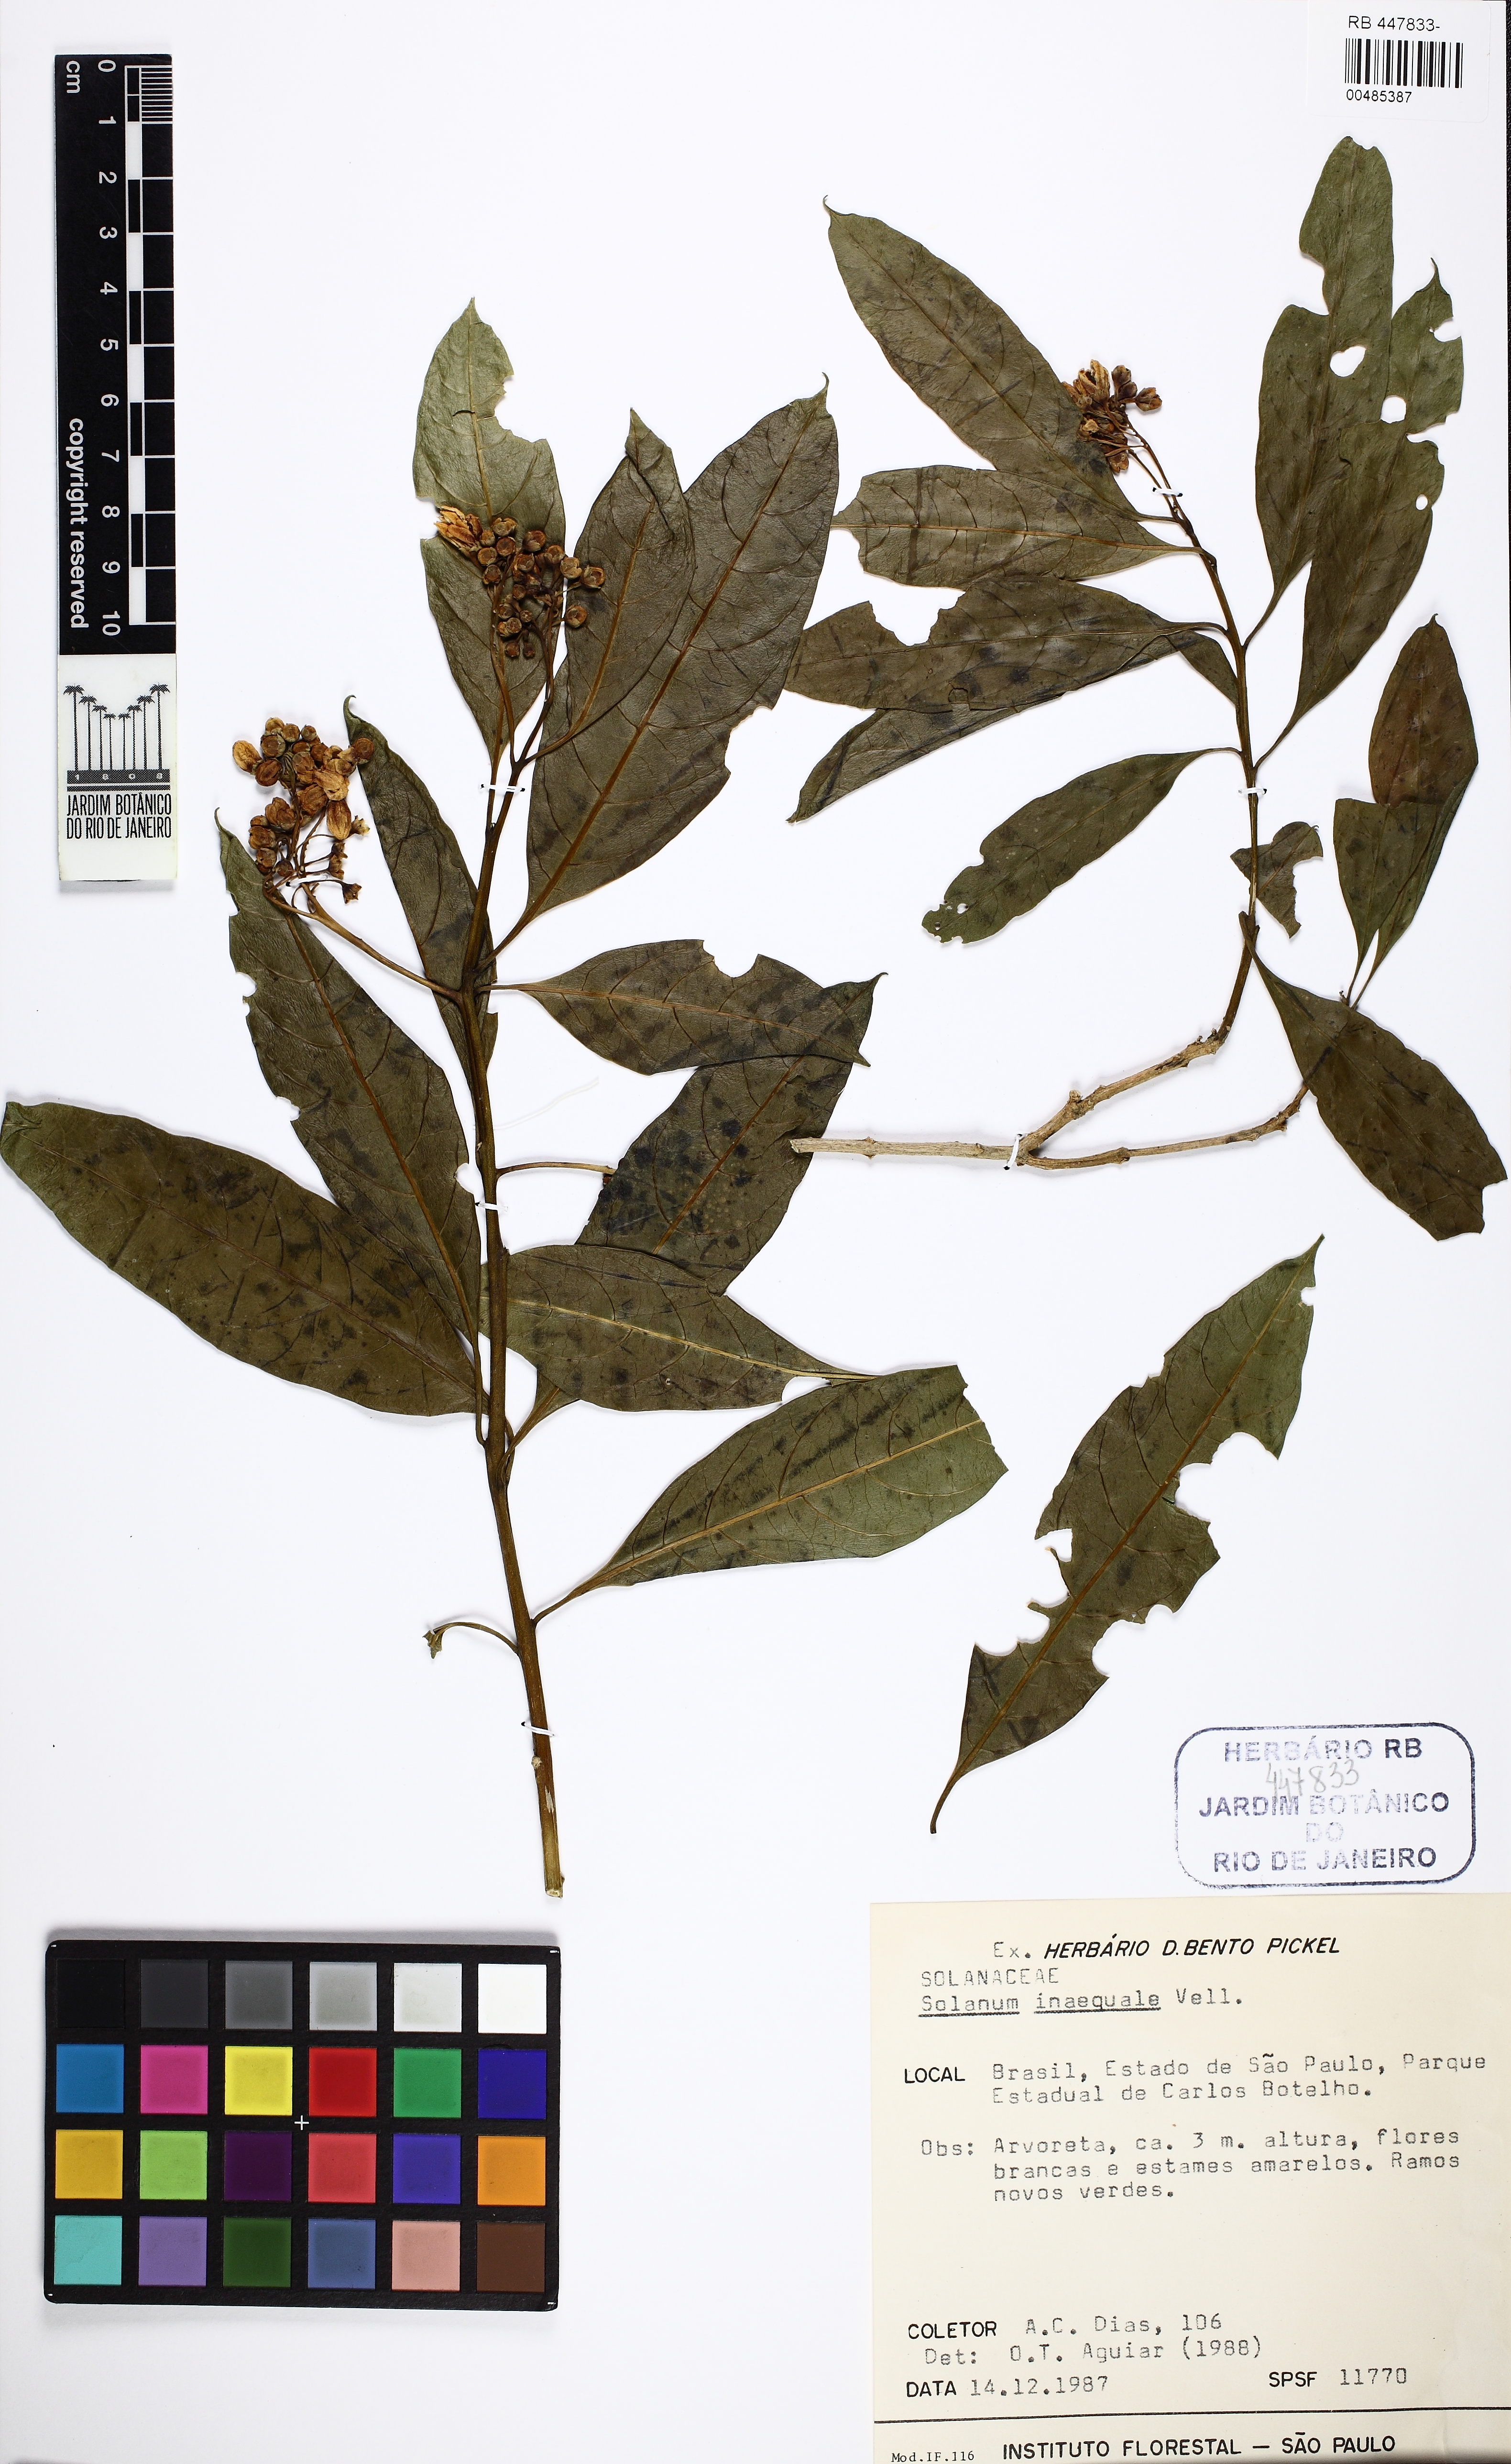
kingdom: Plantae
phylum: Tracheophyta
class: Magnoliopsida
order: Solanales
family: Solanaceae
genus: Solanum
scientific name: Solanum pseudoquina
